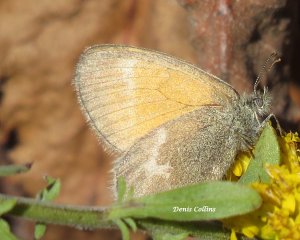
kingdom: Animalia
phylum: Arthropoda
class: Insecta
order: Lepidoptera
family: Nymphalidae
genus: Coenonympha
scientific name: Coenonympha tullia
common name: Large Heath
